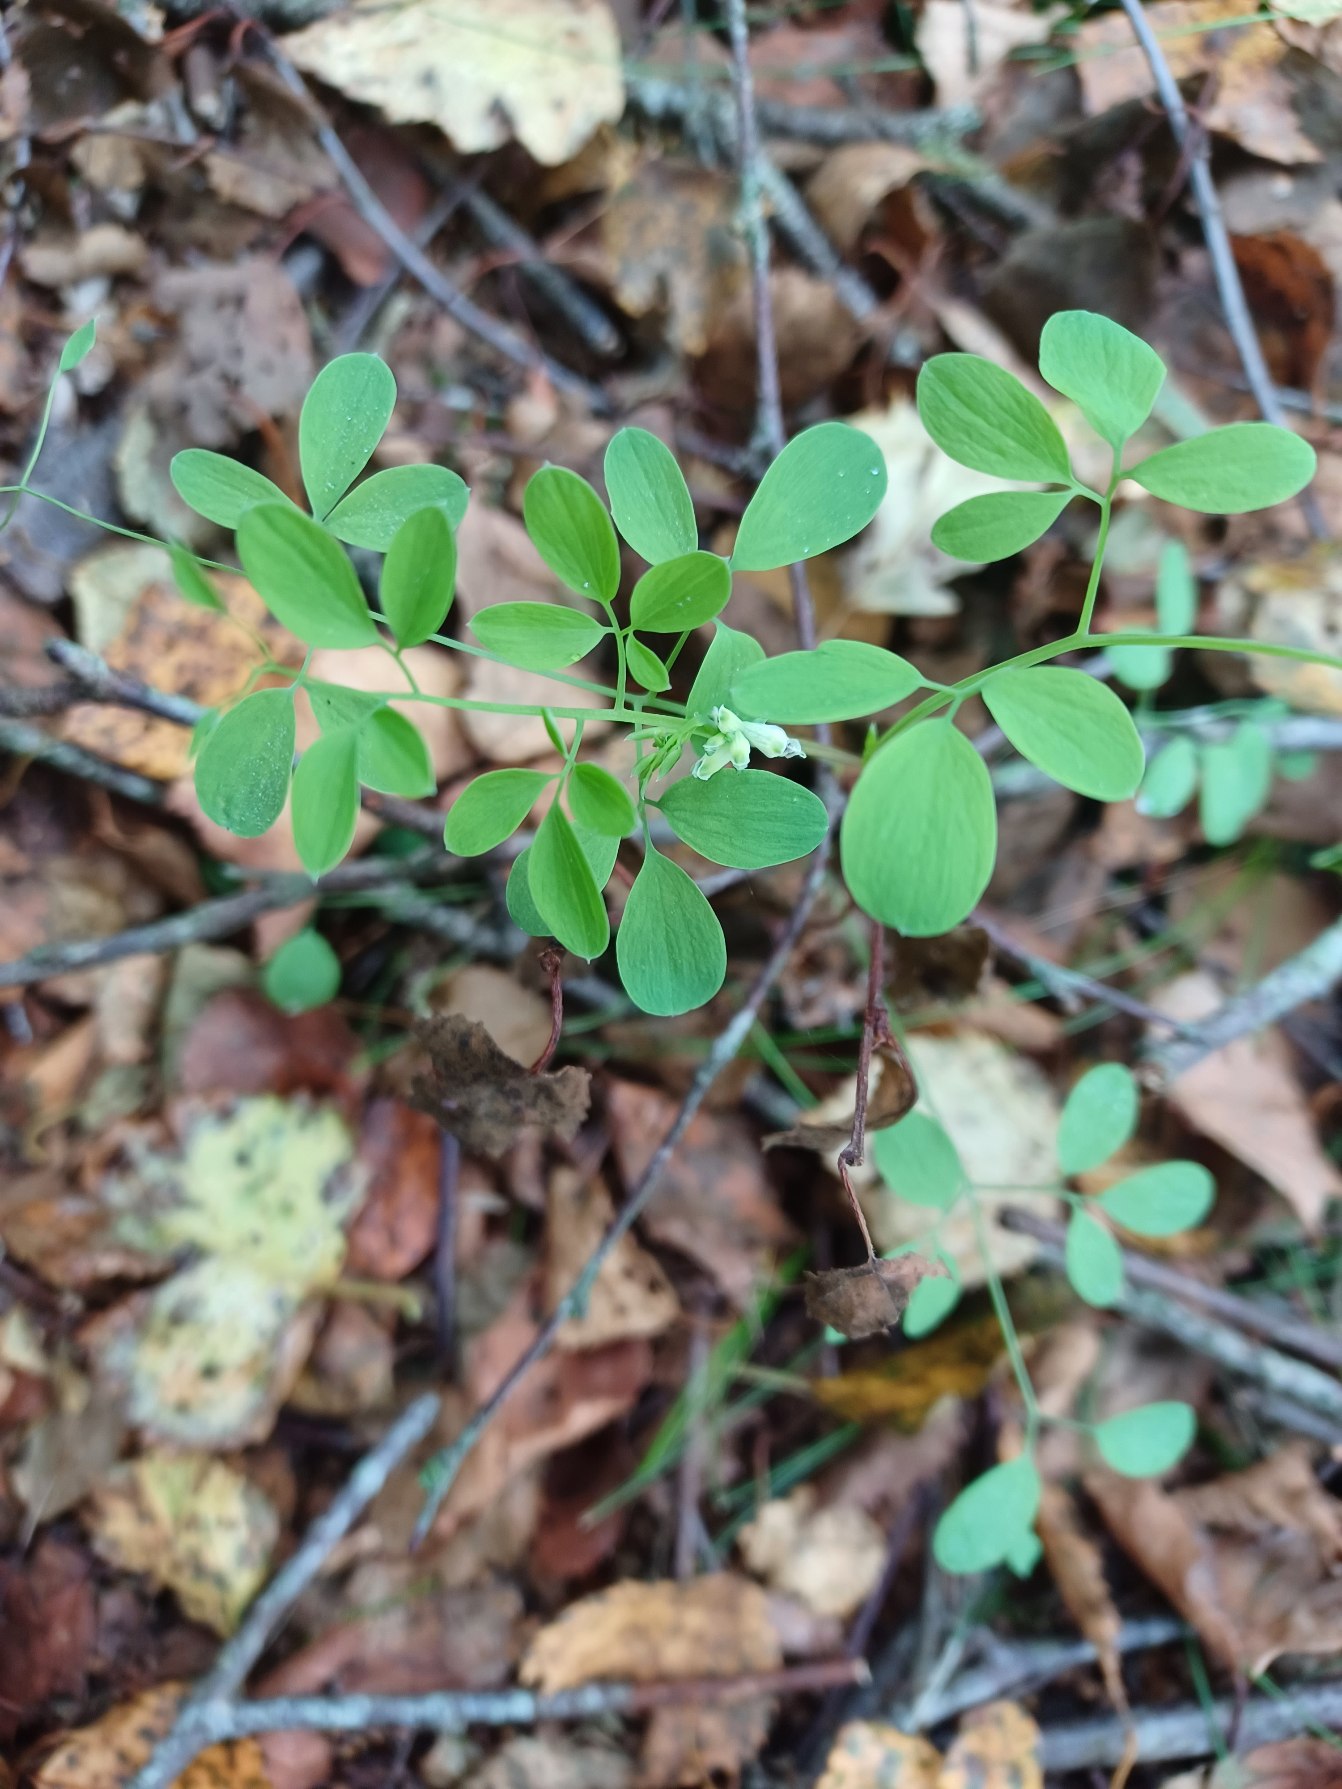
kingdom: Plantae
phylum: Tracheophyta
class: Magnoliopsida
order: Ranunculales
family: Papaveraceae
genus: Ceratocapnos
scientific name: Ceratocapnos claviculata
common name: Klatrende lærkespore
